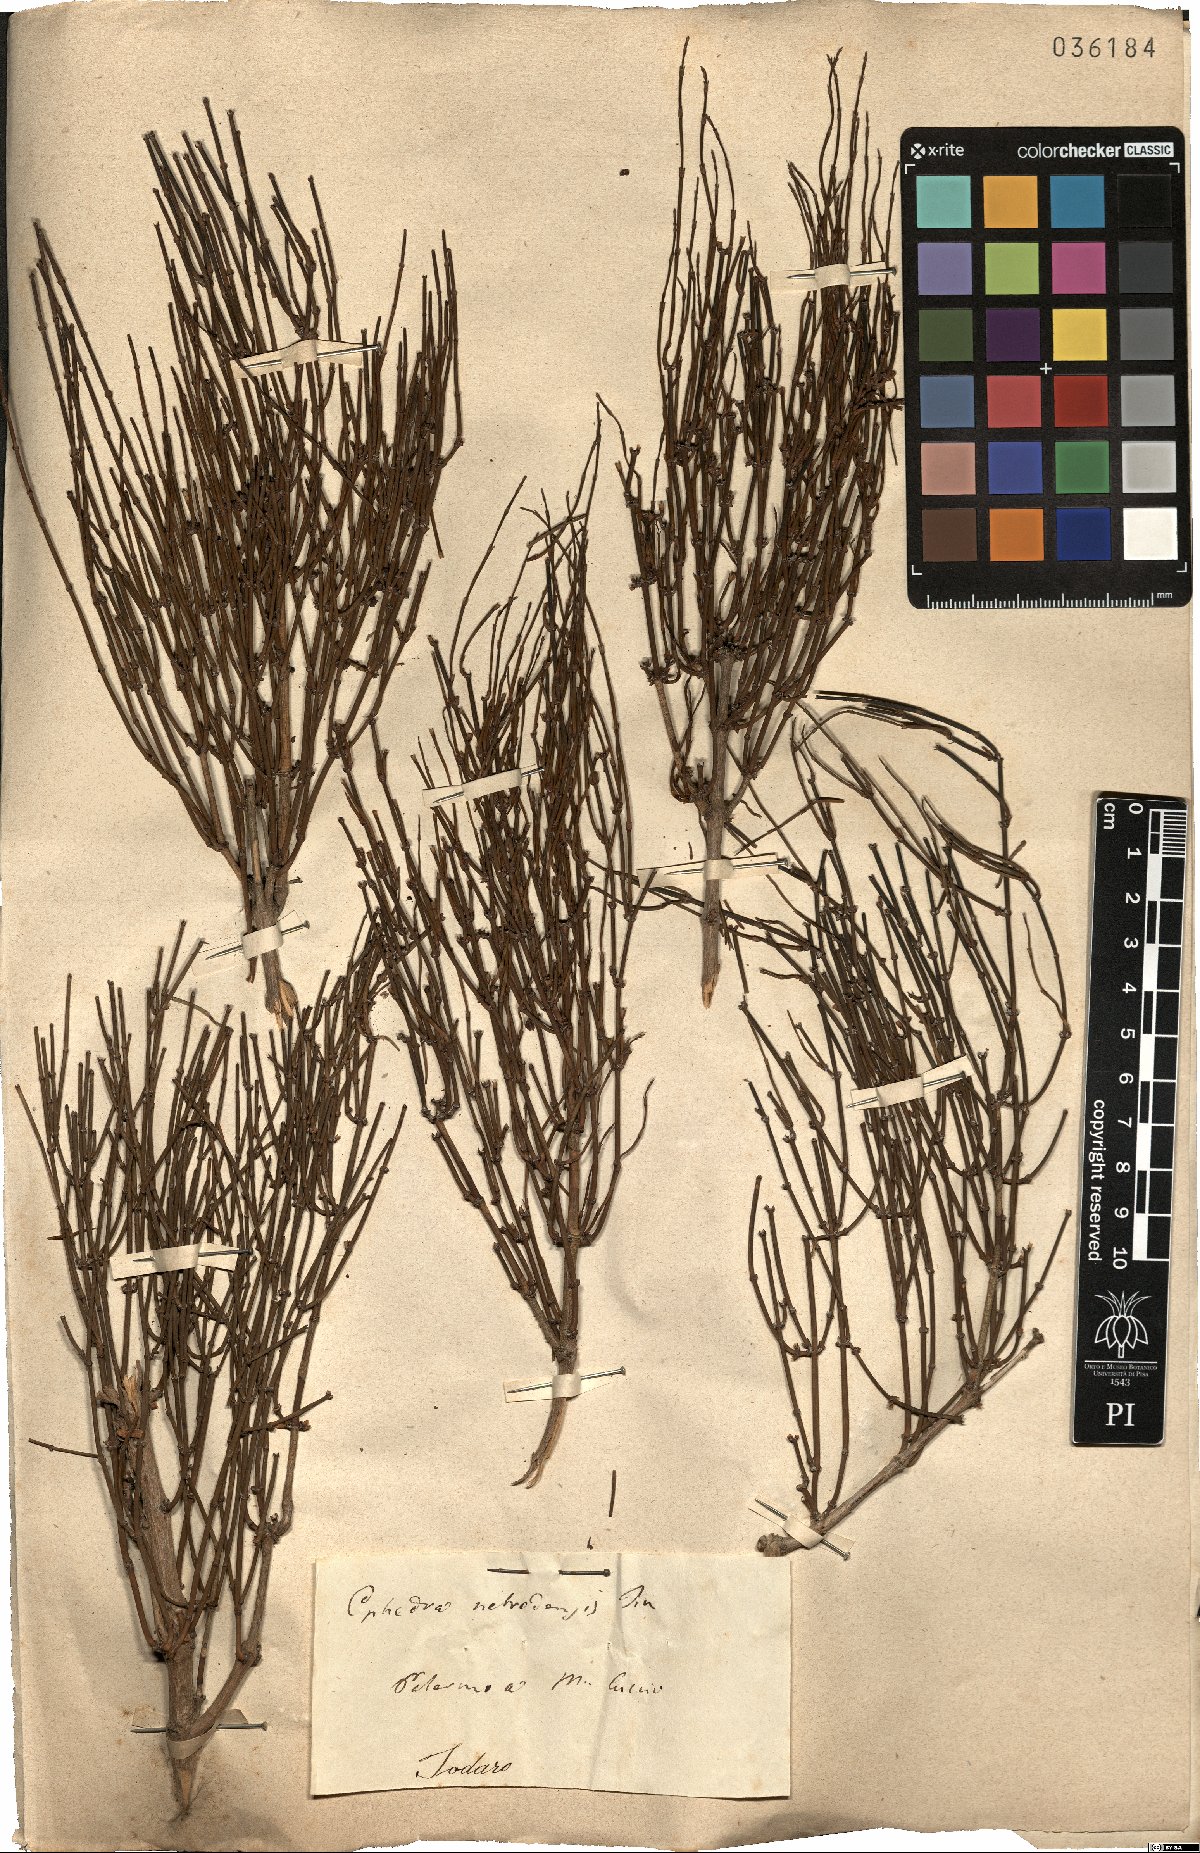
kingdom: Plantae
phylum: Tracheophyta
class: Gnetopsida
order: Ephedrales
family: Ephedraceae
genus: Ephedra
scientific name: Ephedra foeminea
